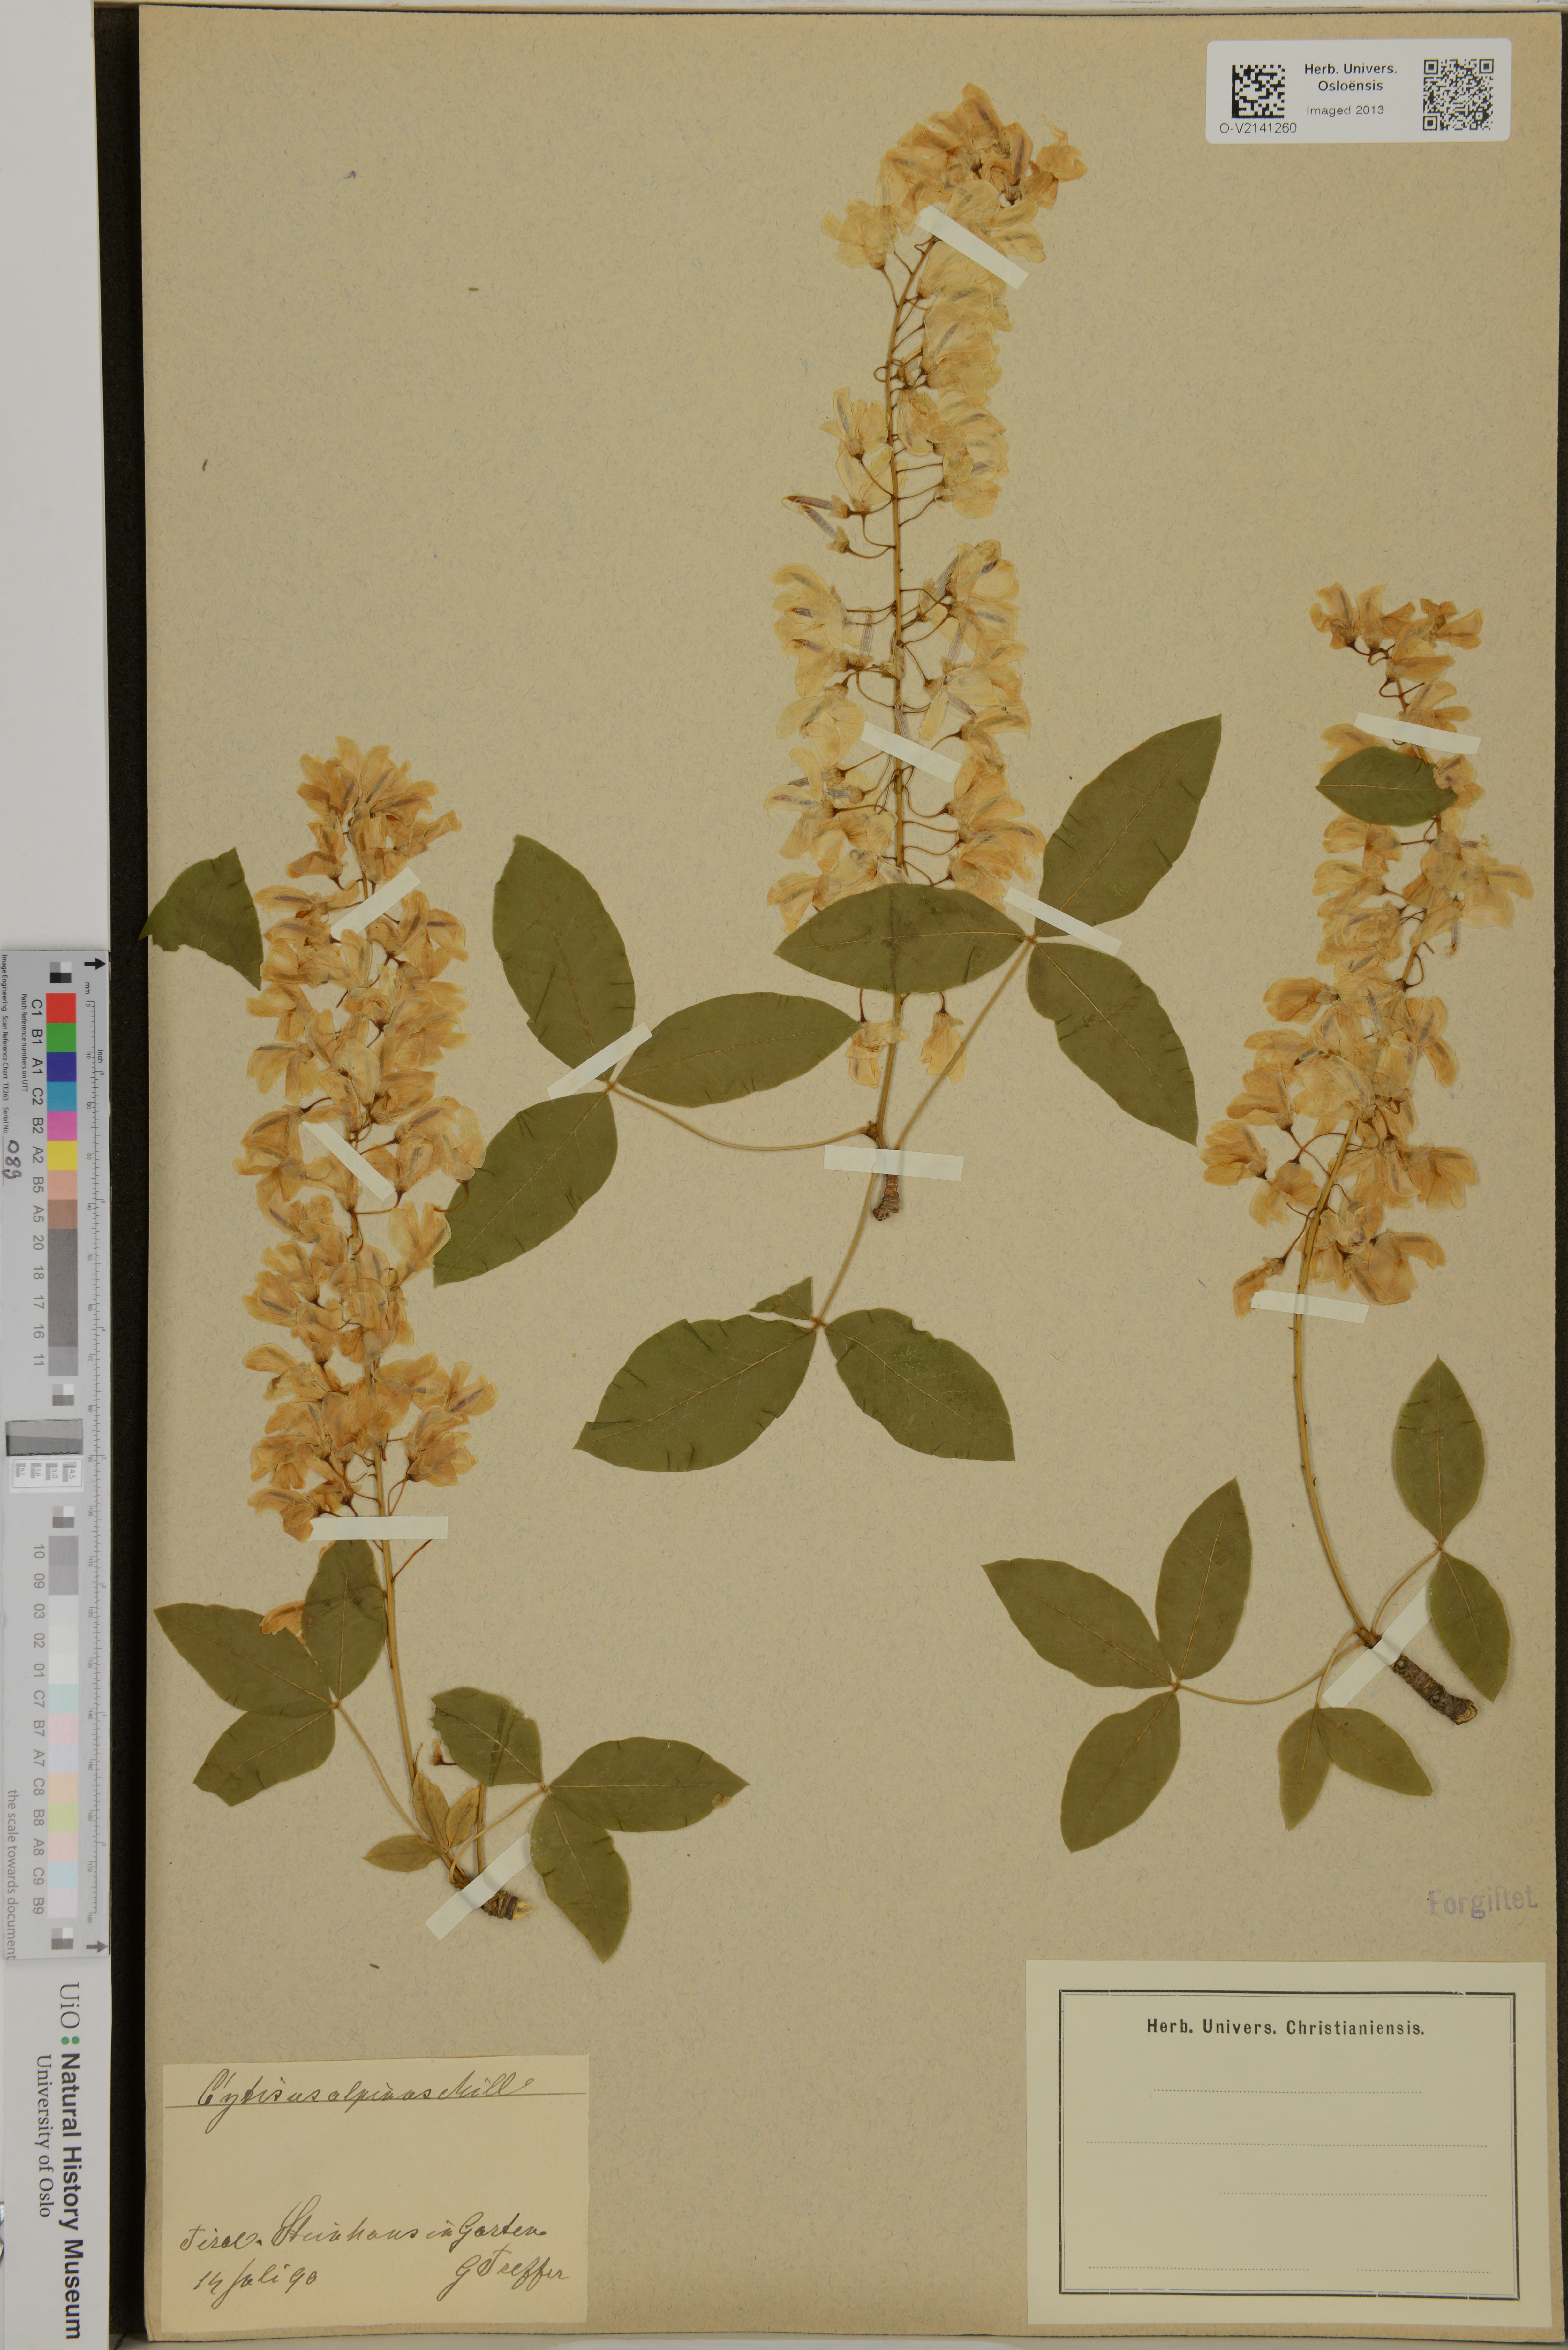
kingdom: Plantae
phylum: Tracheophyta
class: Magnoliopsida
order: Fabales
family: Fabaceae
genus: Laburnum
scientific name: Laburnum alpinum
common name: Scottish laburnum
